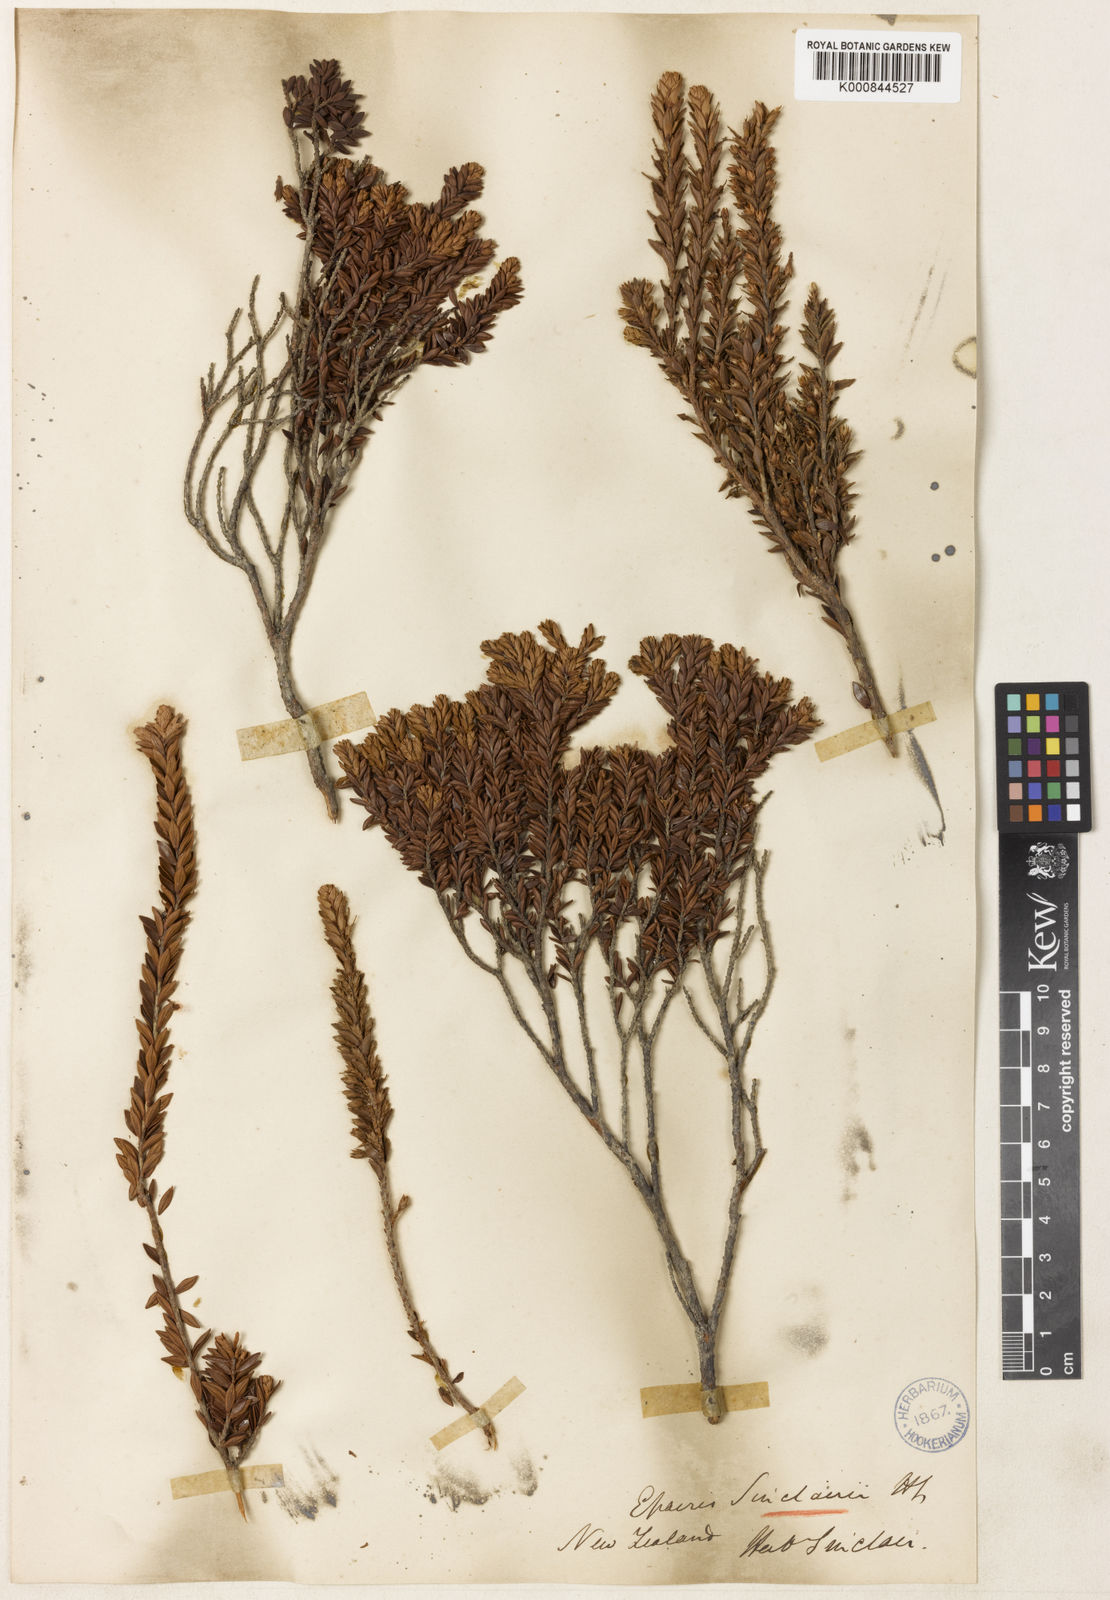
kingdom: Plantae
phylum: Tracheophyta
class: Magnoliopsida
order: Ericales
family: Ericaceae
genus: Epacris
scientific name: Epacris sinclairii
